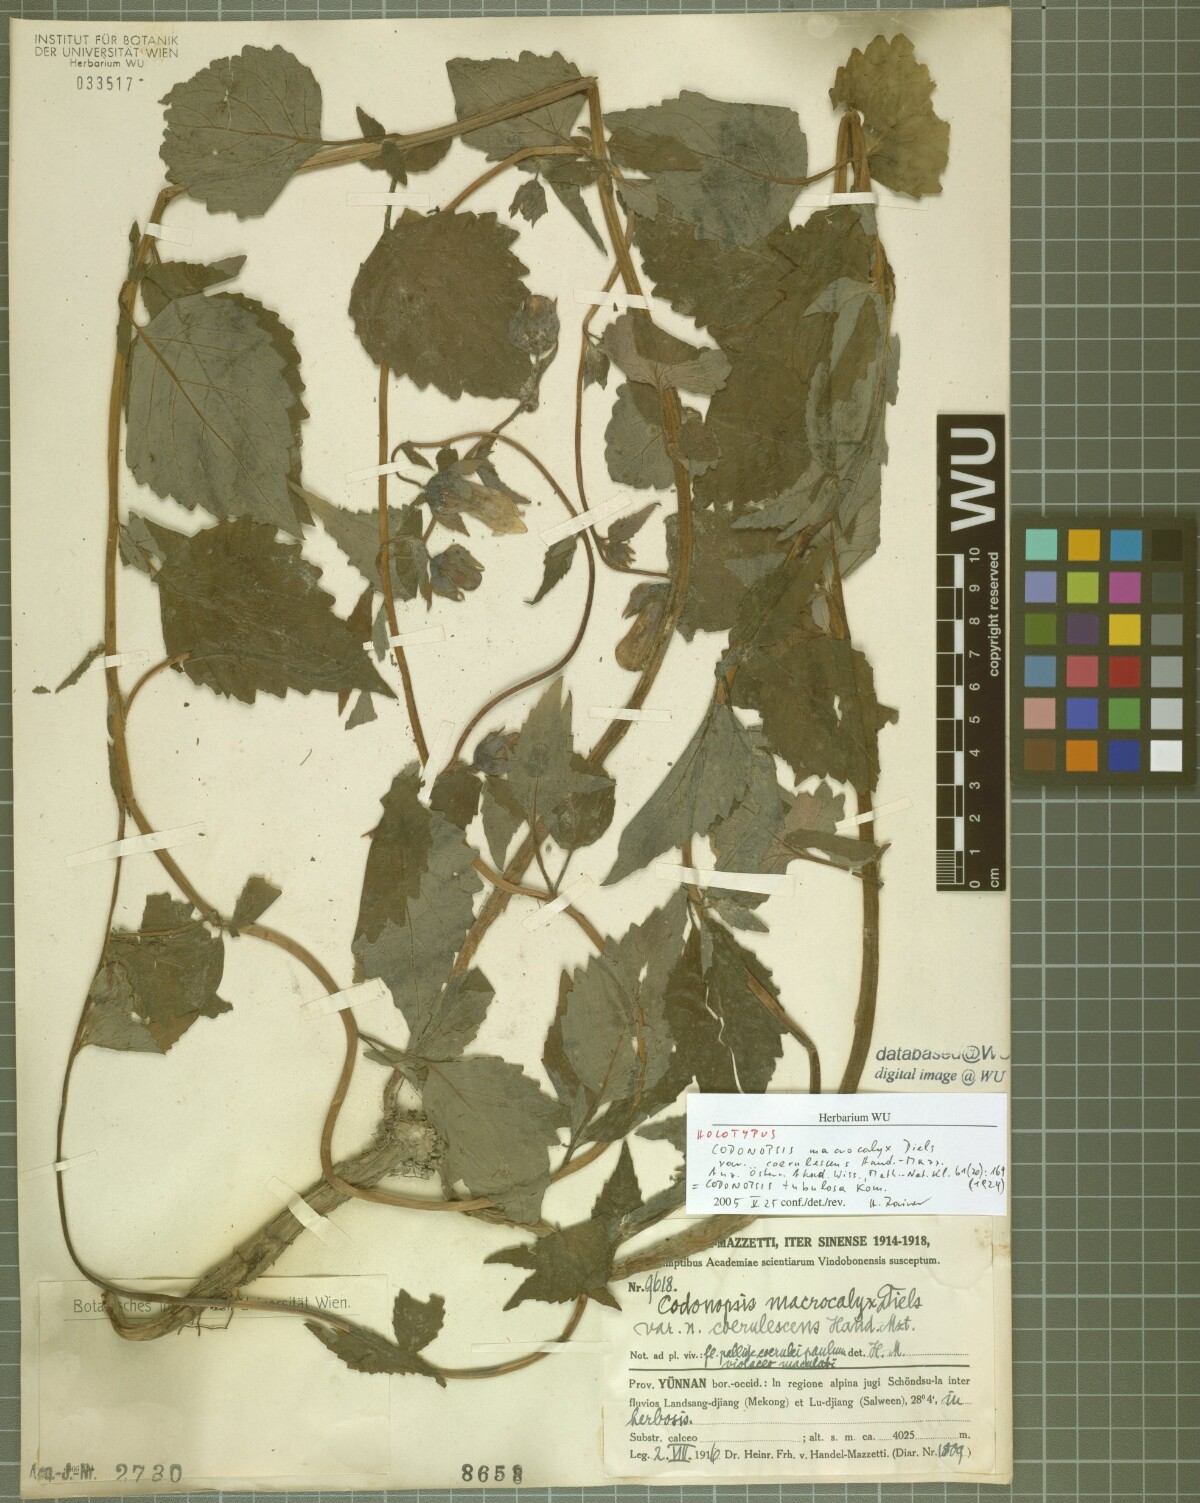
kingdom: Plantae
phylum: Tracheophyta
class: Magnoliopsida
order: Asterales
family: Campanulaceae
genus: Codonopsis
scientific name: Codonopsis benthamii
